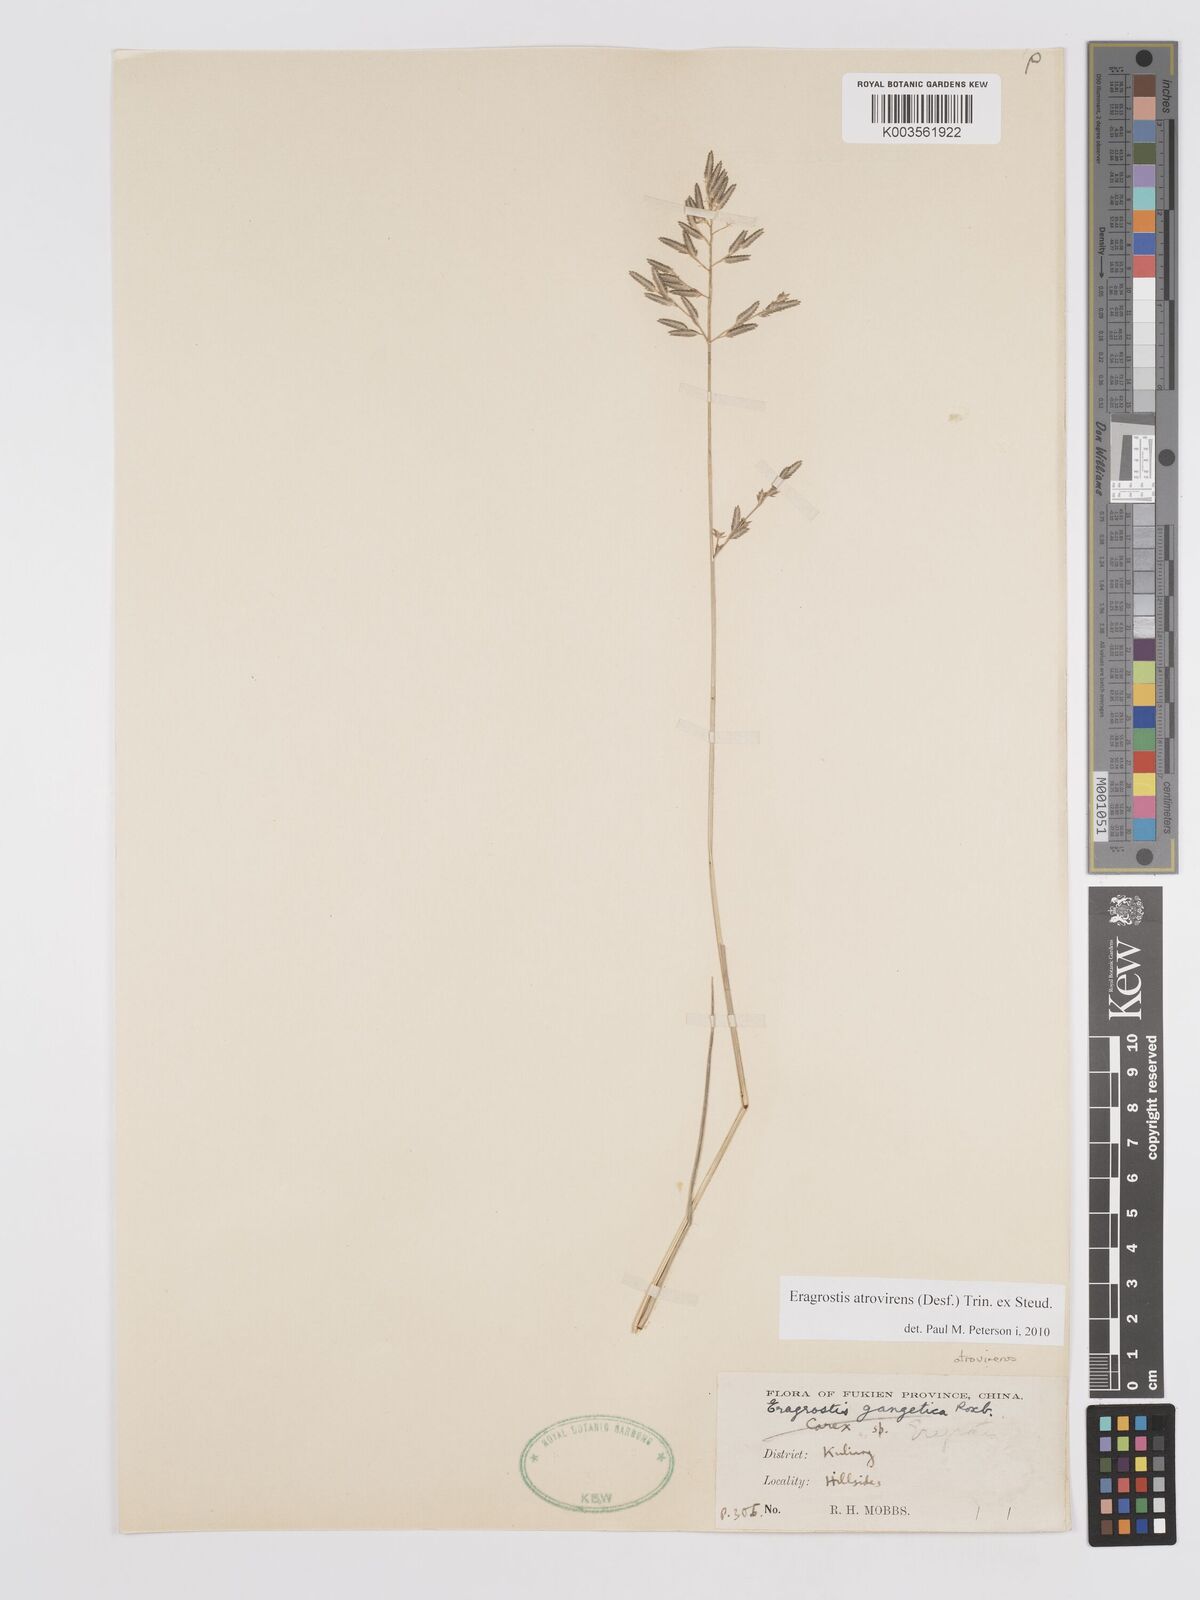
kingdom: Plantae
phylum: Tracheophyta
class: Liliopsida
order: Poales
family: Poaceae
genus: Eragrostis
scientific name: Eragrostis atrovirens
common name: Thalia lovegrass
